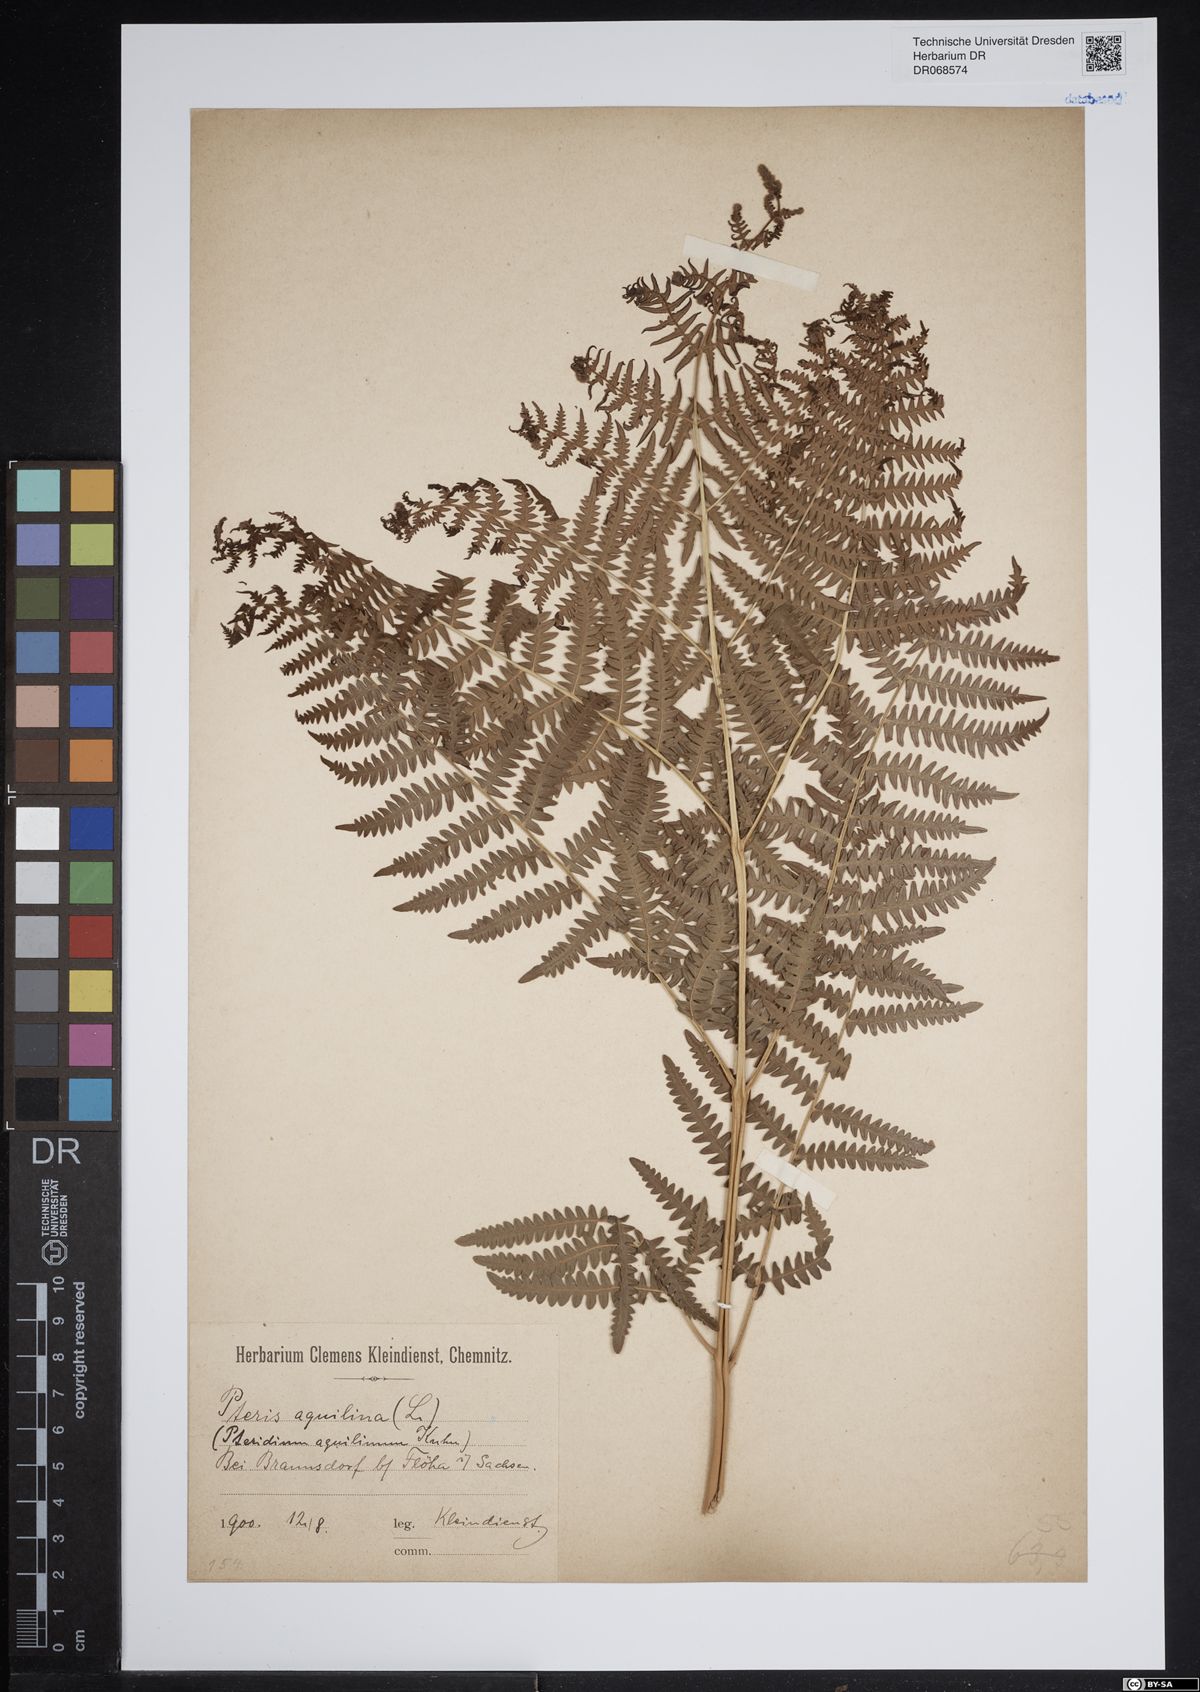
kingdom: Plantae
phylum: Tracheophyta
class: Polypodiopsida
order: Polypodiales
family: Dennstaedtiaceae
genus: Pteridium
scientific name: Pteridium aquilinum
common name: Bracken
